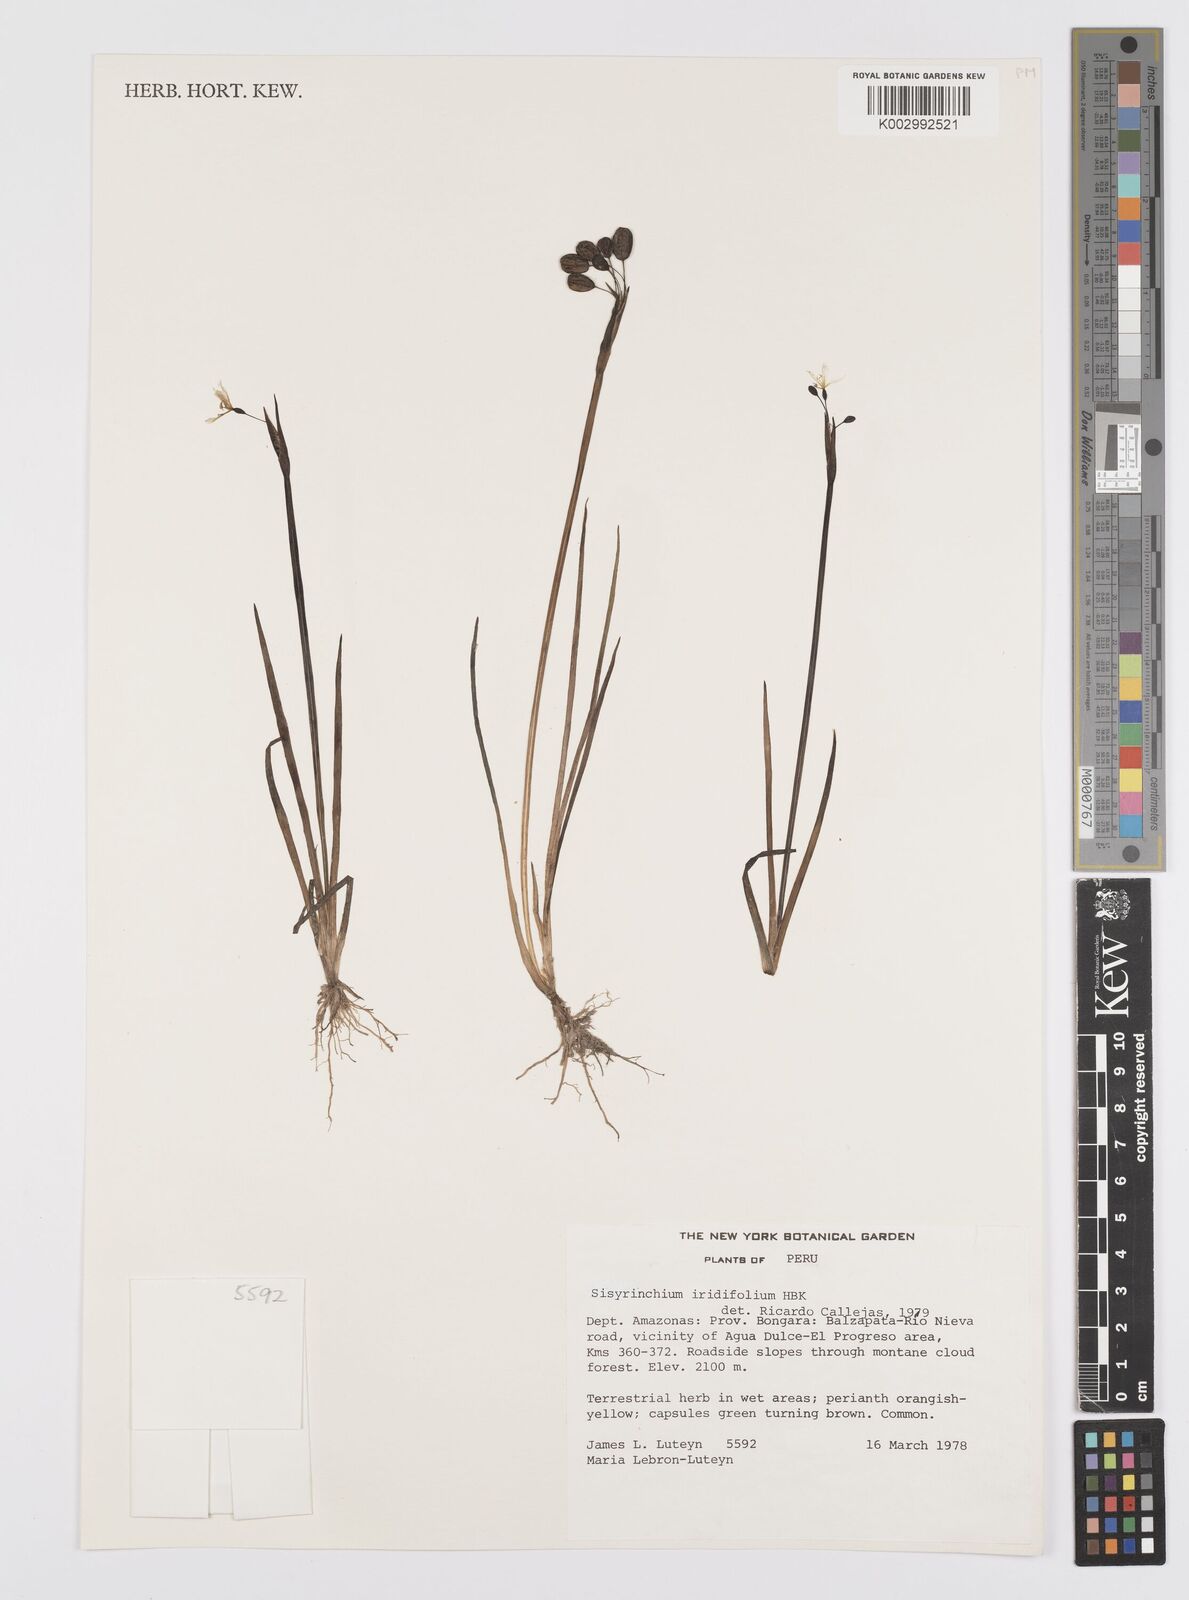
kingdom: Plantae
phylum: Tracheophyta
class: Liliopsida
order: Asparagales
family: Iridaceae
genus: Sisyrinchium
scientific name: Sisyrinchium micranthum
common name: Bermuda pigroot
